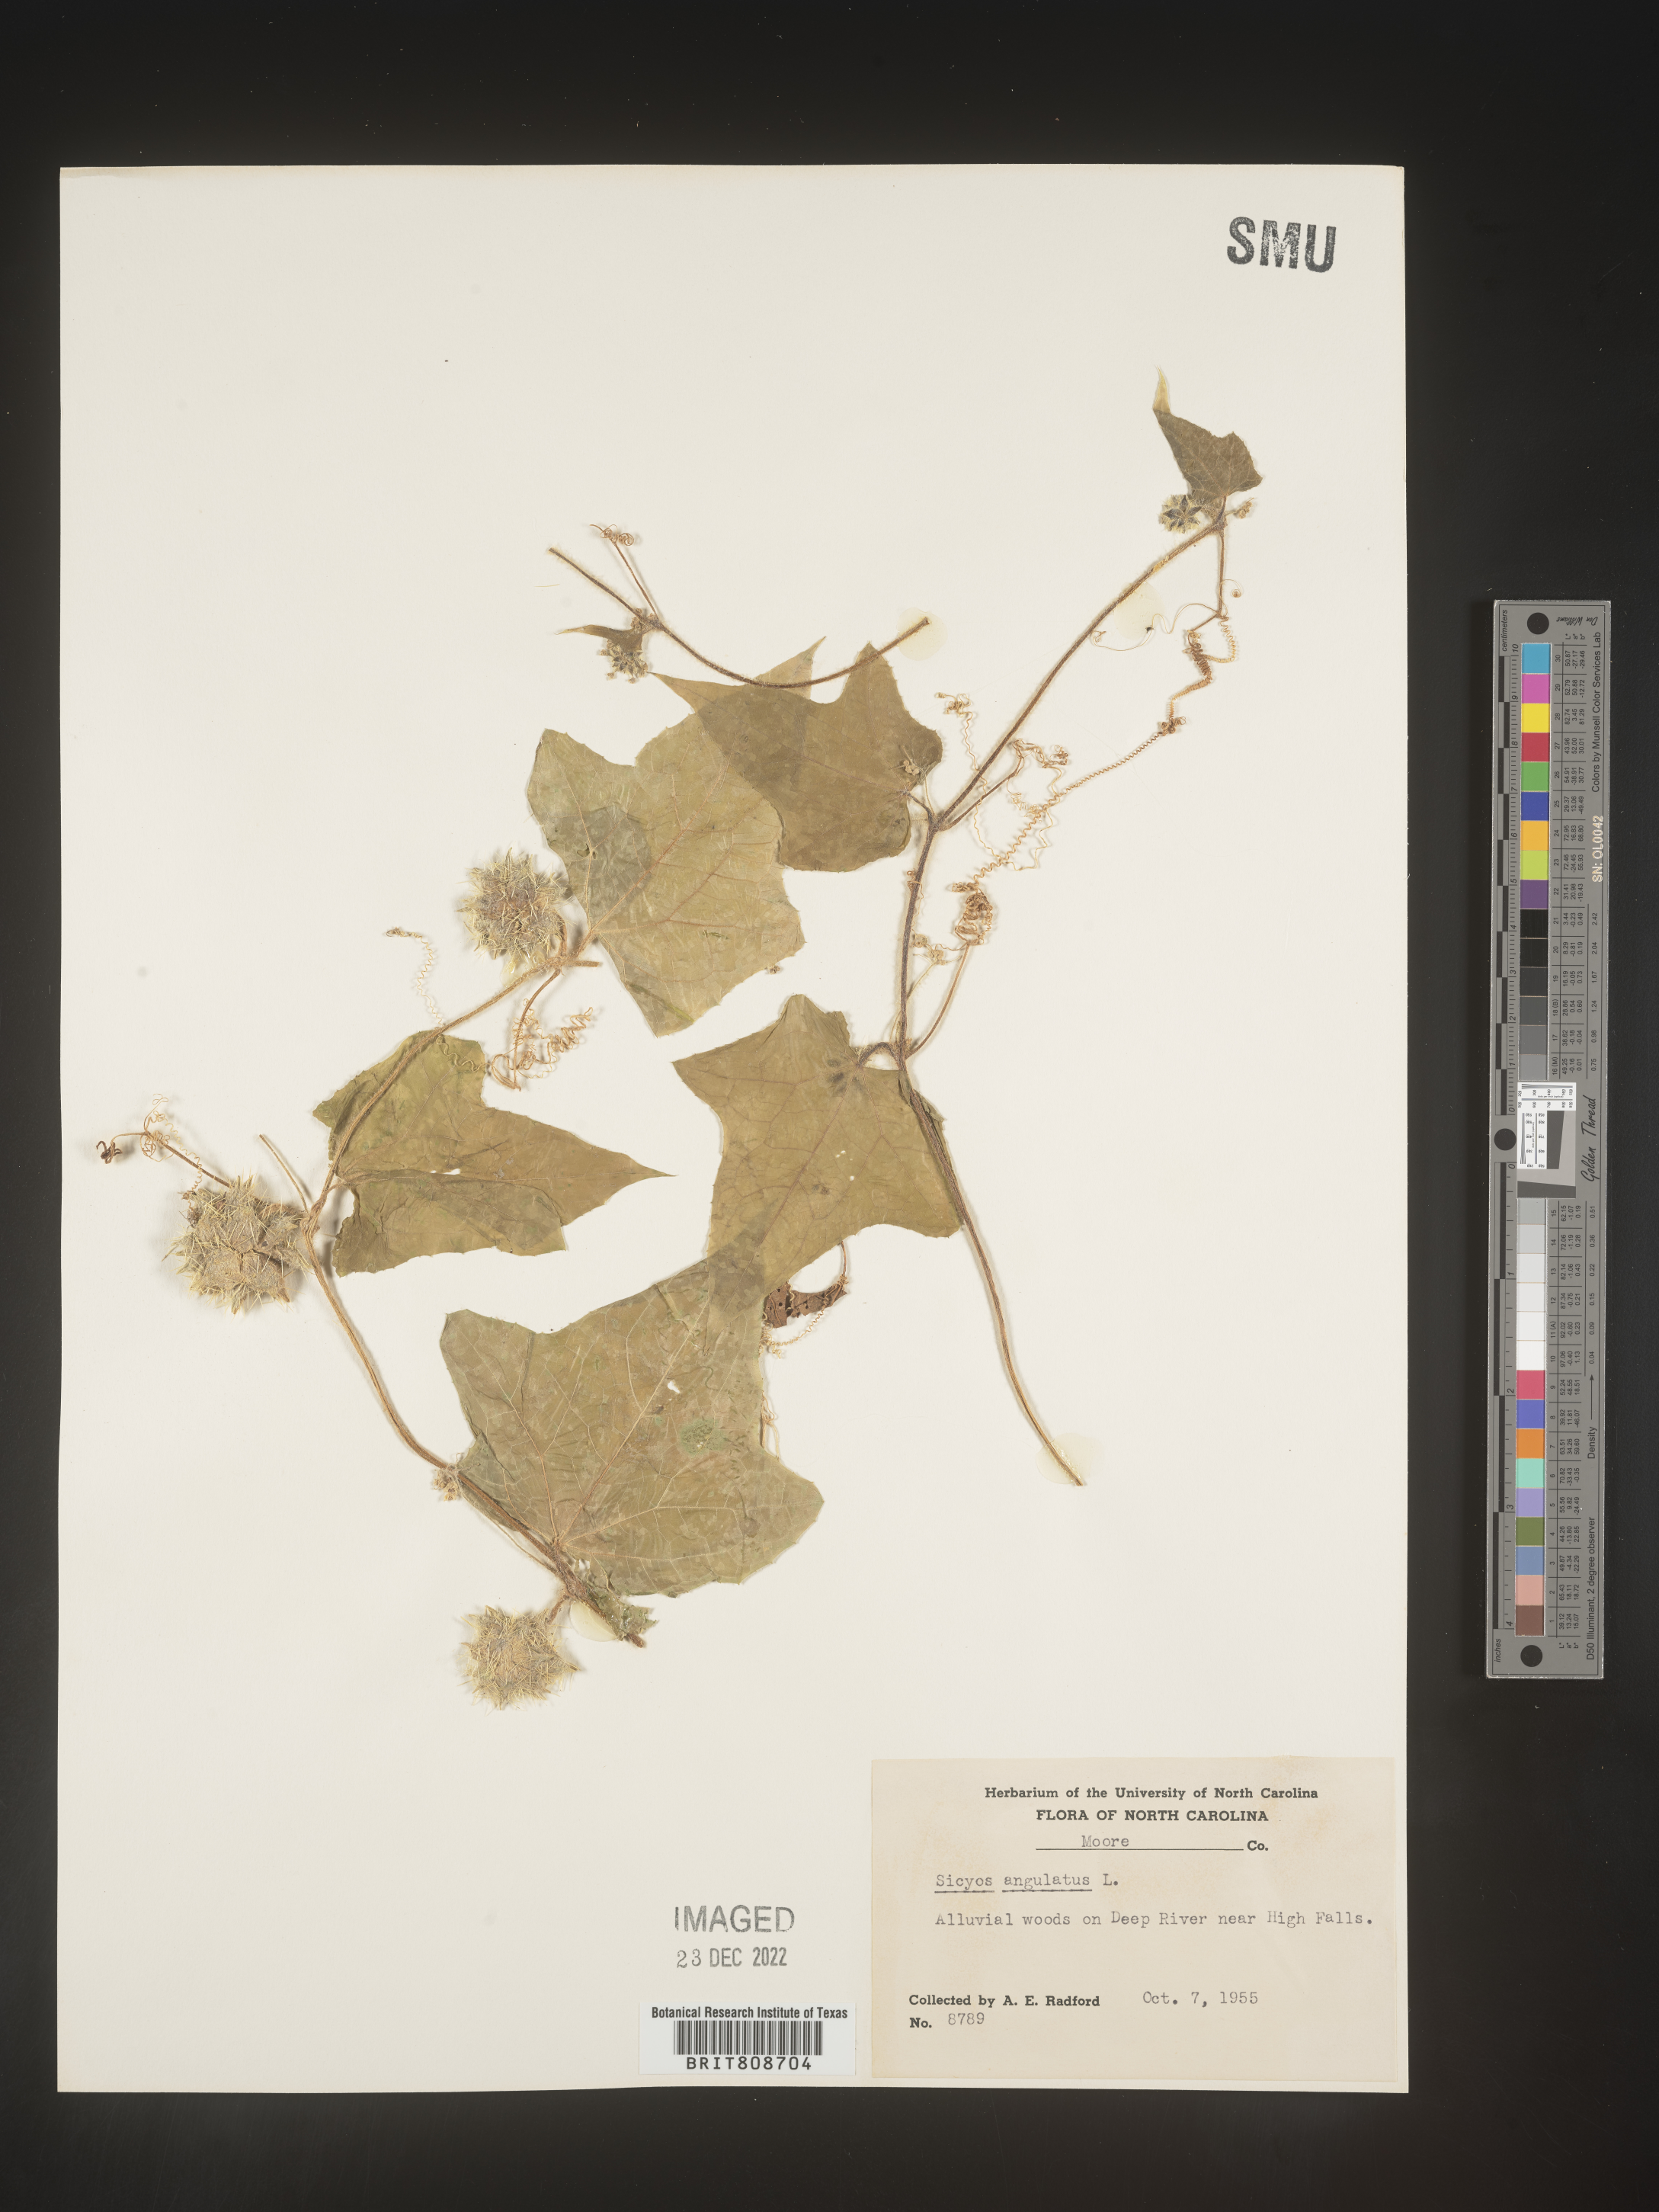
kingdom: Plantae
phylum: Tracheophyta
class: Magnoliopsida
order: Cucurbitales
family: Cucurbitaceae
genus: Sicyos
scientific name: Sicyos angulatus
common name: Angled burr cucumber
